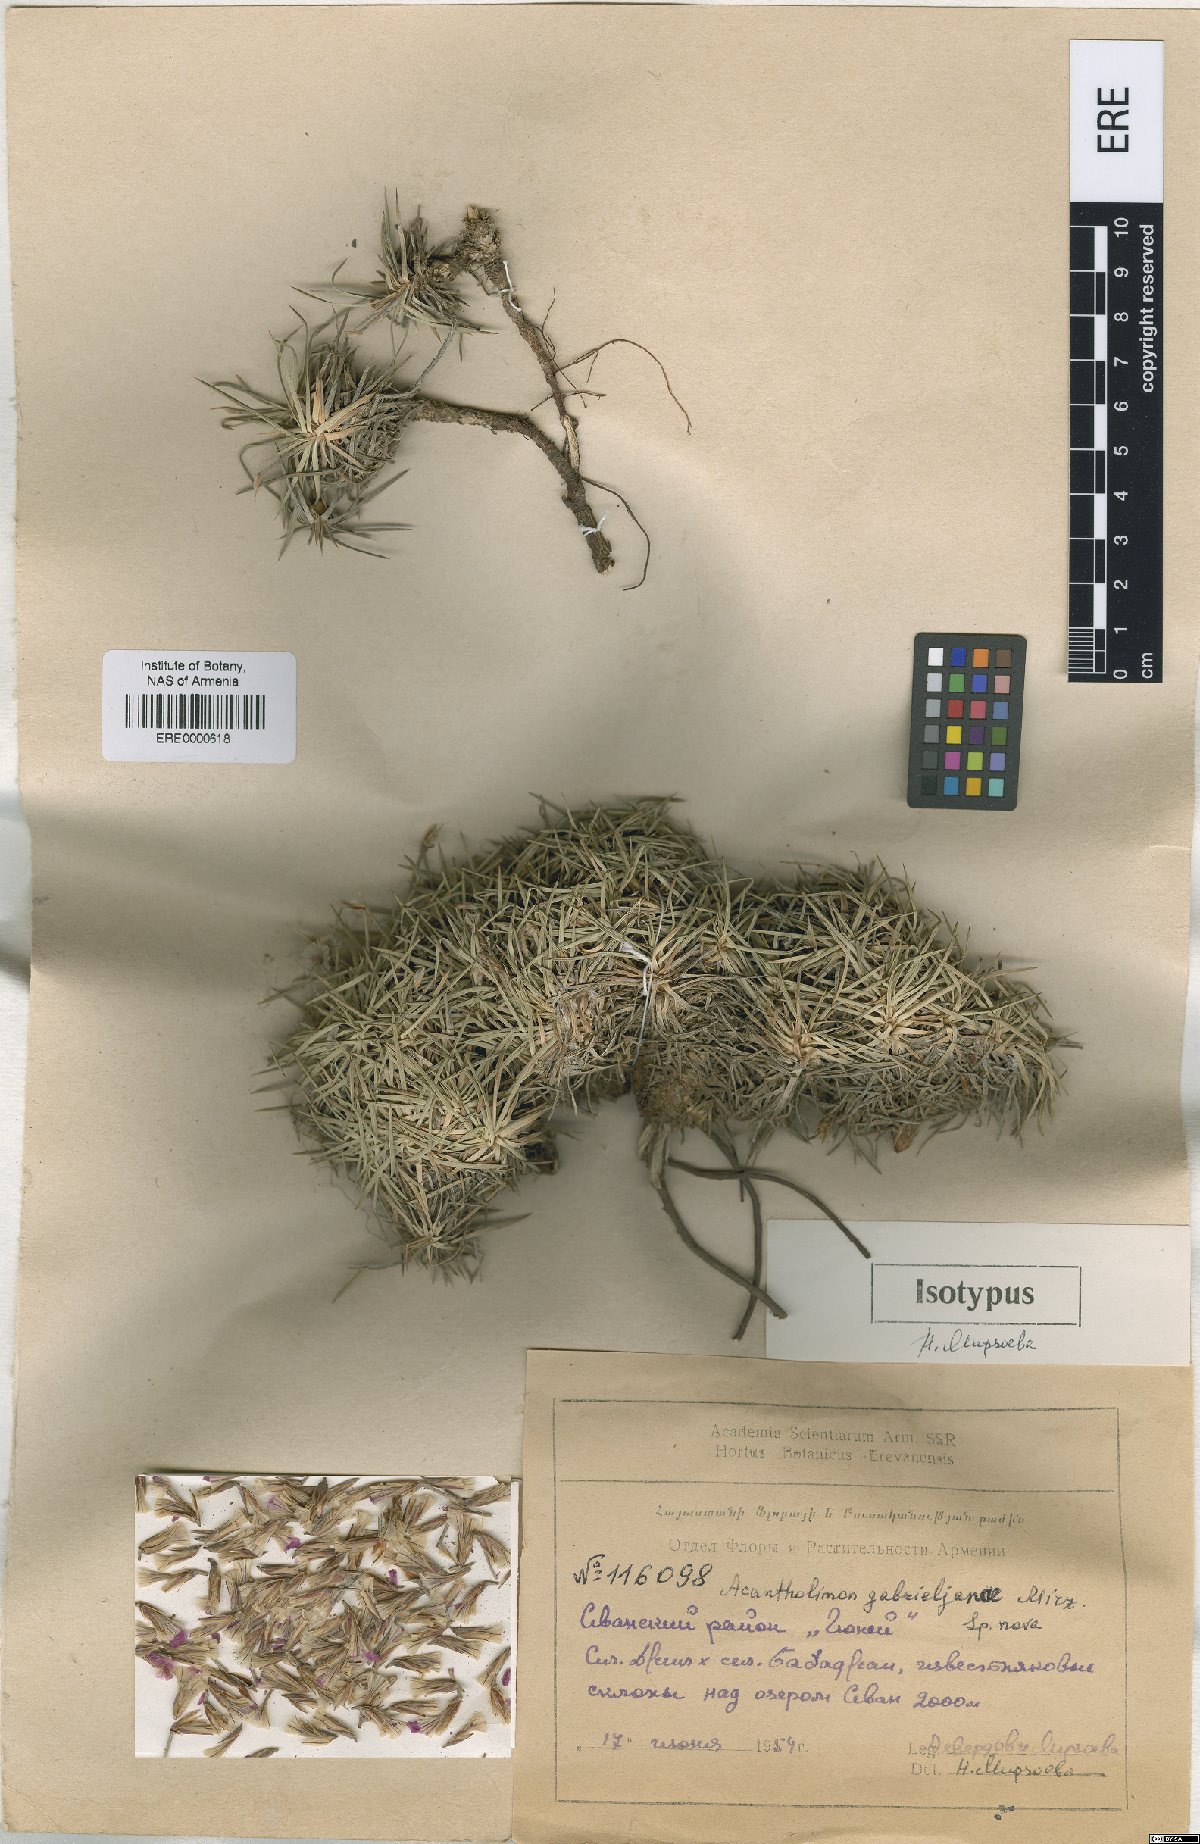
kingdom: Plantae
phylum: Tracheophyta
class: Magnoliopsida
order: Caryophyllales
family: Plumbaginaceae
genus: Acantholimon
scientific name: Acantholimon gabrieljaniae
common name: Gabrielyan's prickly-thrift
